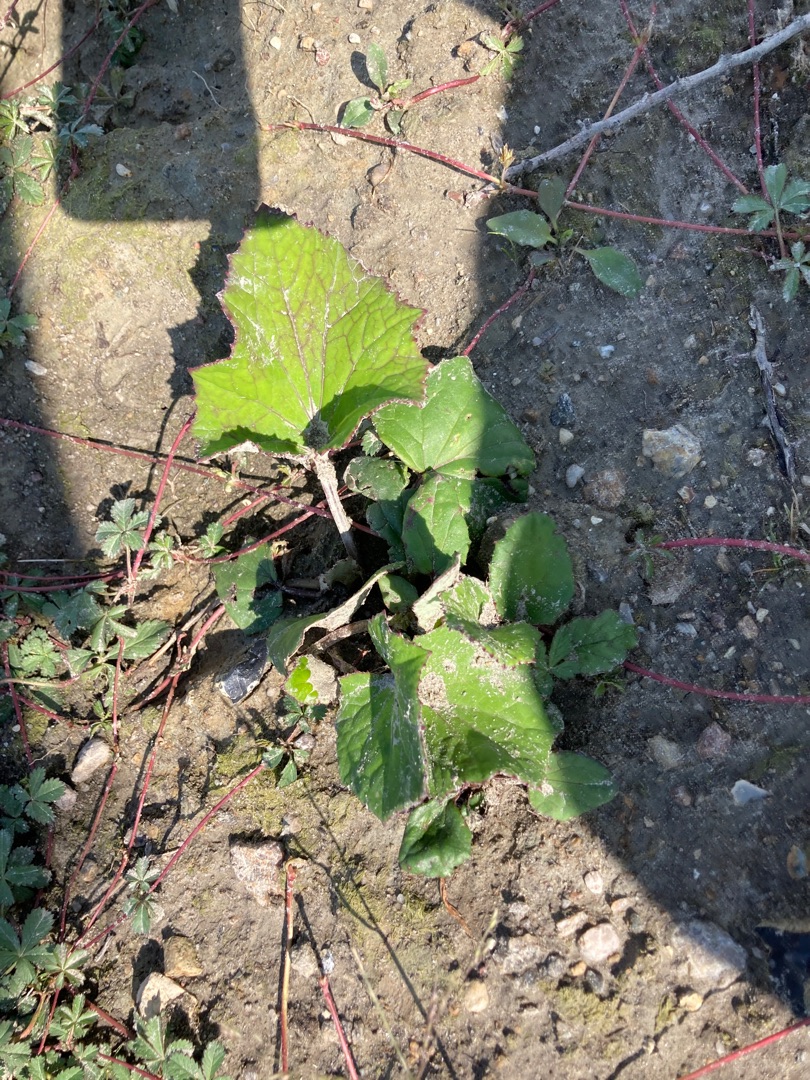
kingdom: Plantae
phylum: Tracheophyta
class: Magnoliopsida
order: Asterales
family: Asteraceae
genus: Tussilago
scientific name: Tussilago farfara
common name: Følfod
